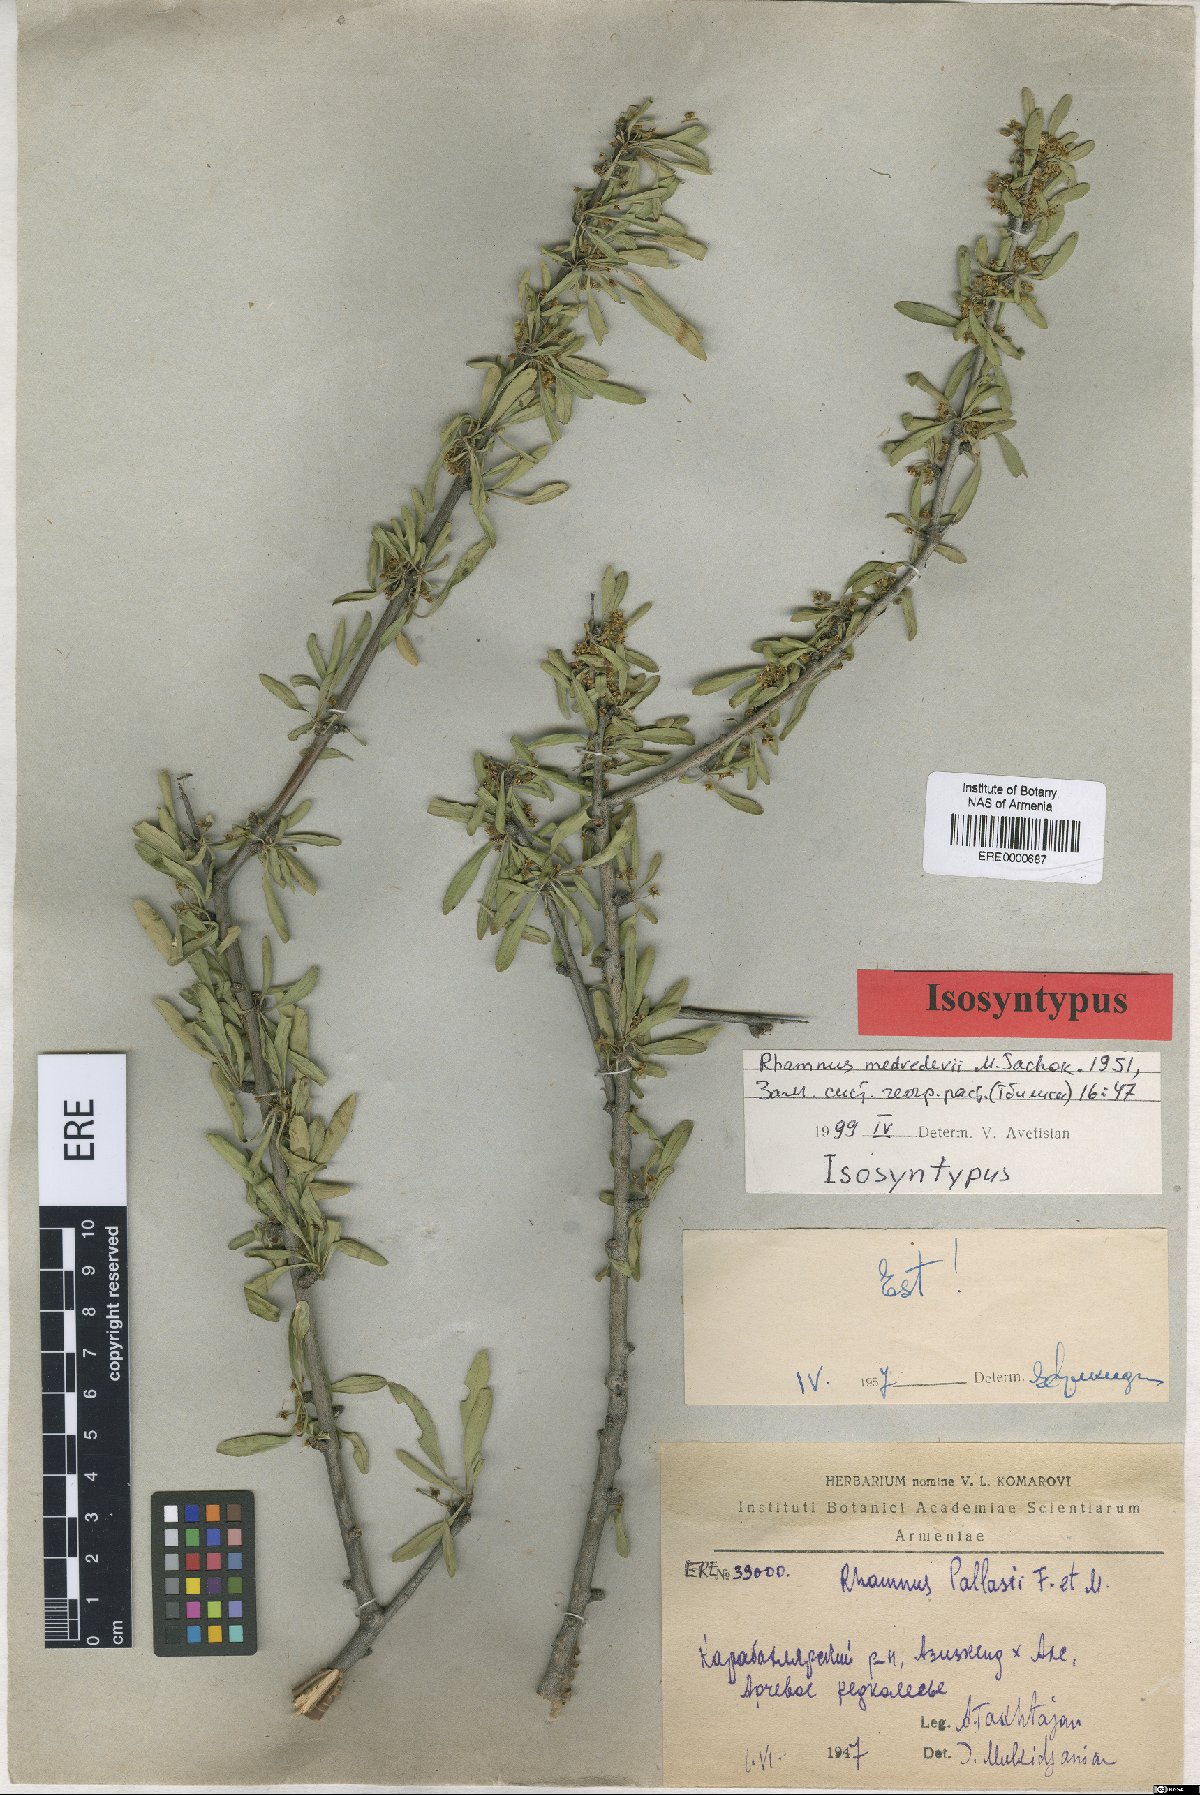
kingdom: Plantae
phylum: Tracheophyta
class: Magnoliopsida
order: Rosales
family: Rhamnaceae
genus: Rhamnus
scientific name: Rhamnus erythroxyloides
